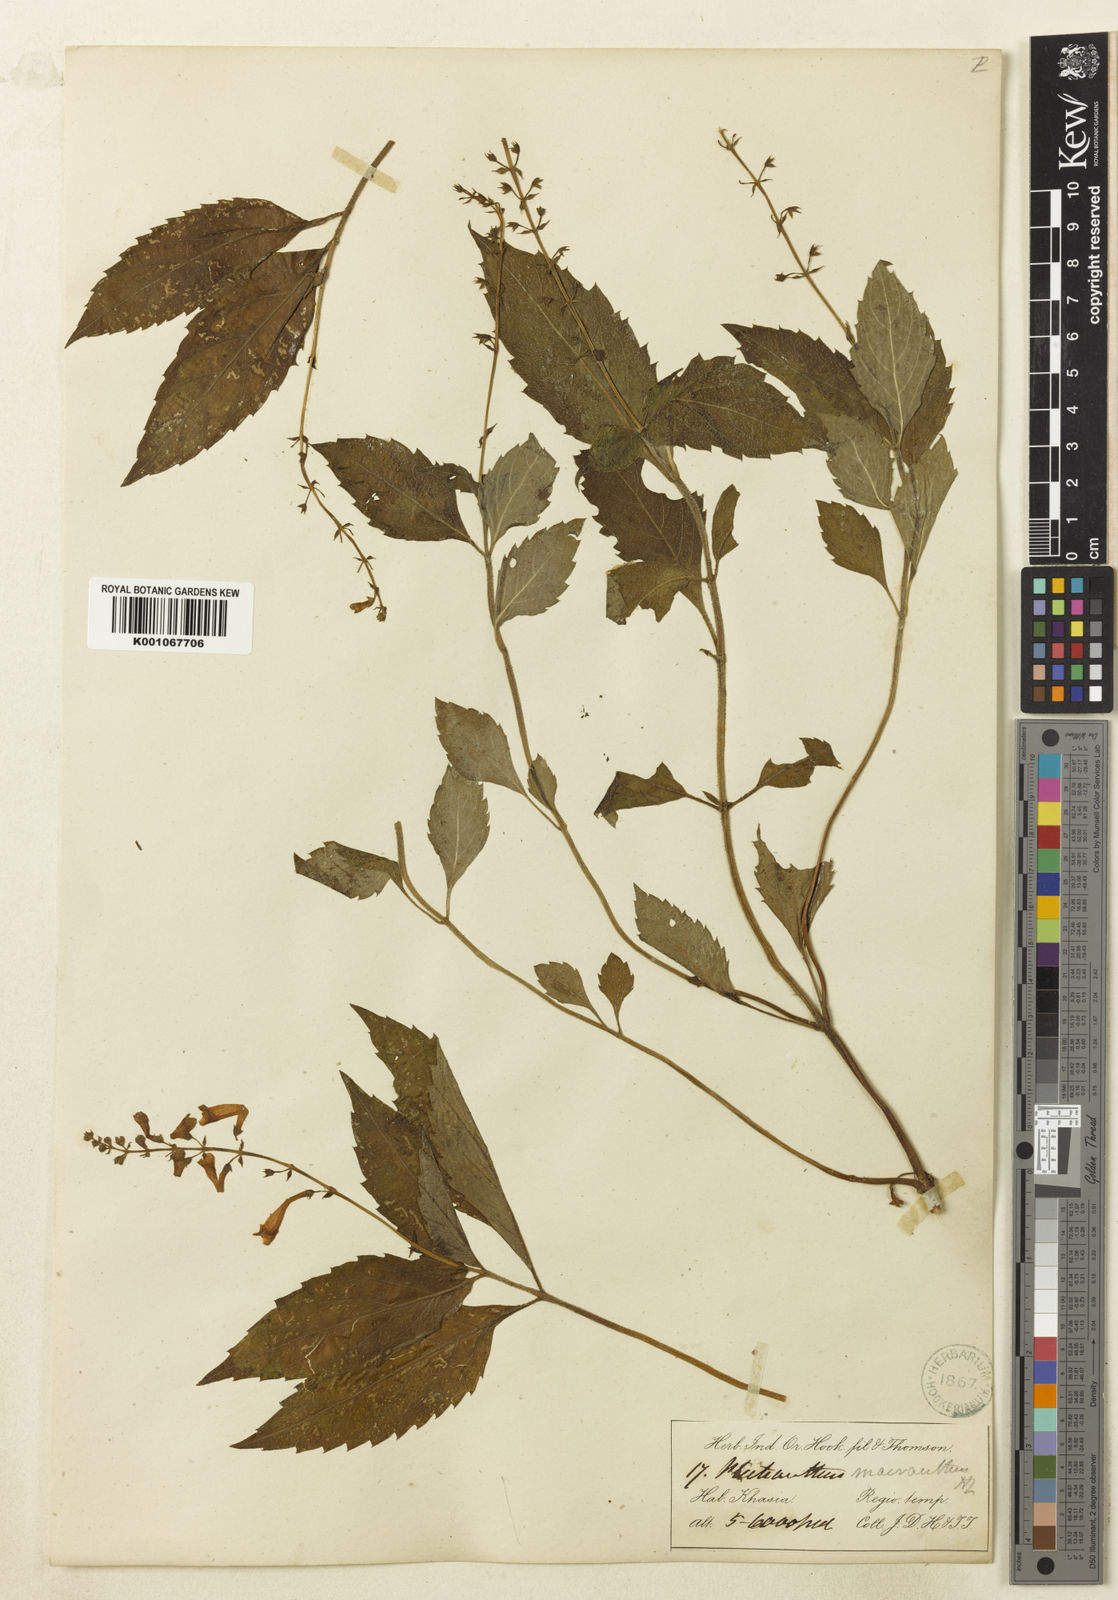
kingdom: Plantae
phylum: Tracheophyta
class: Magnoliopsida
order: Lamiales
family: Lamiaceae
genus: Siphocranion
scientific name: Siphocranion macranthum
